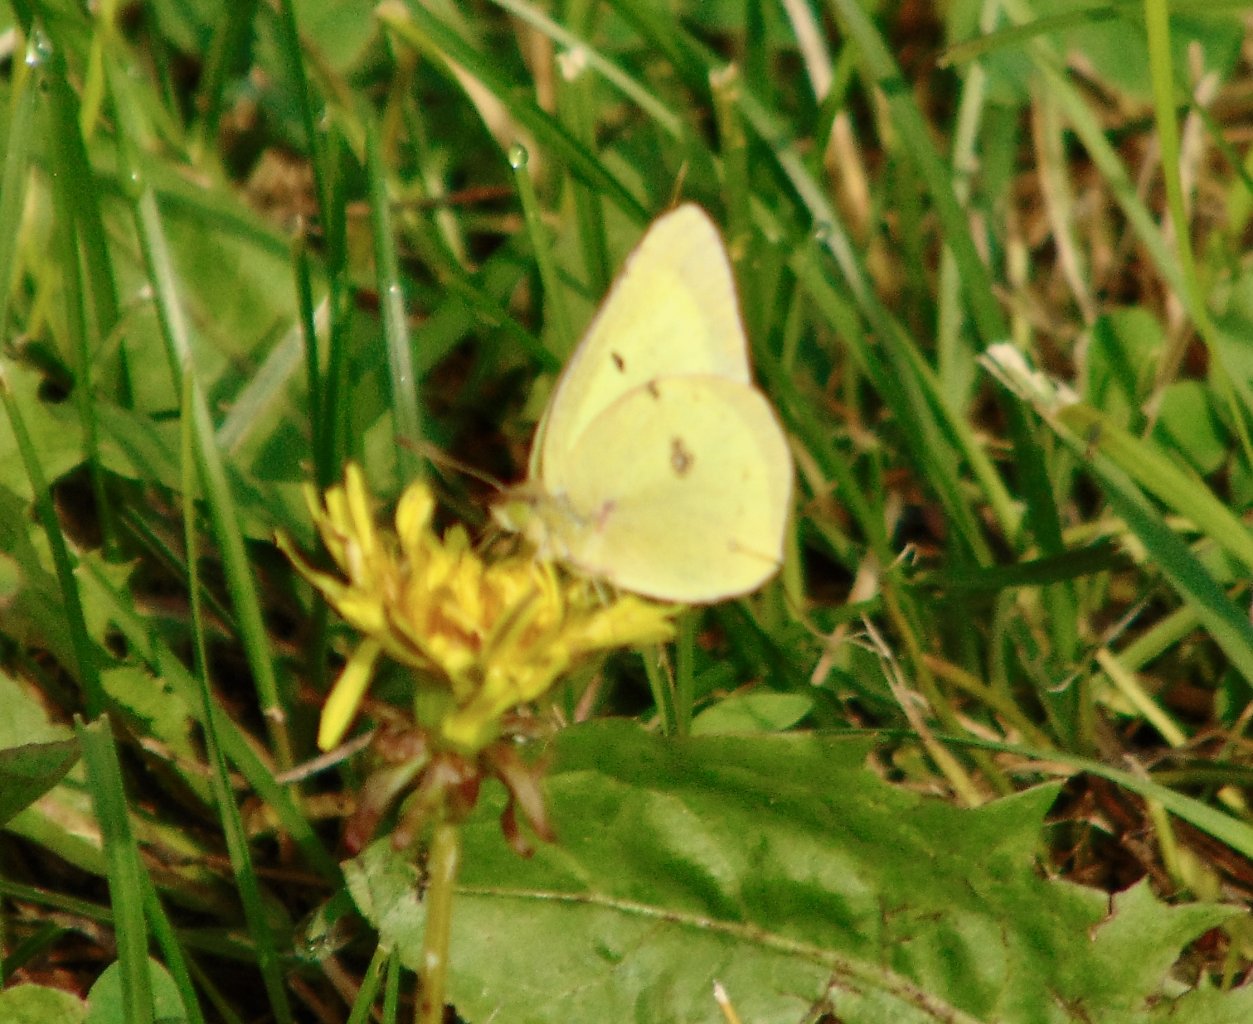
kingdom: Animalia
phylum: Arthropoda
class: Insecta
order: Lepidoptera
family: Pieridae
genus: Colias
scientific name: Colias philodice
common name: Clouded Sulphur
